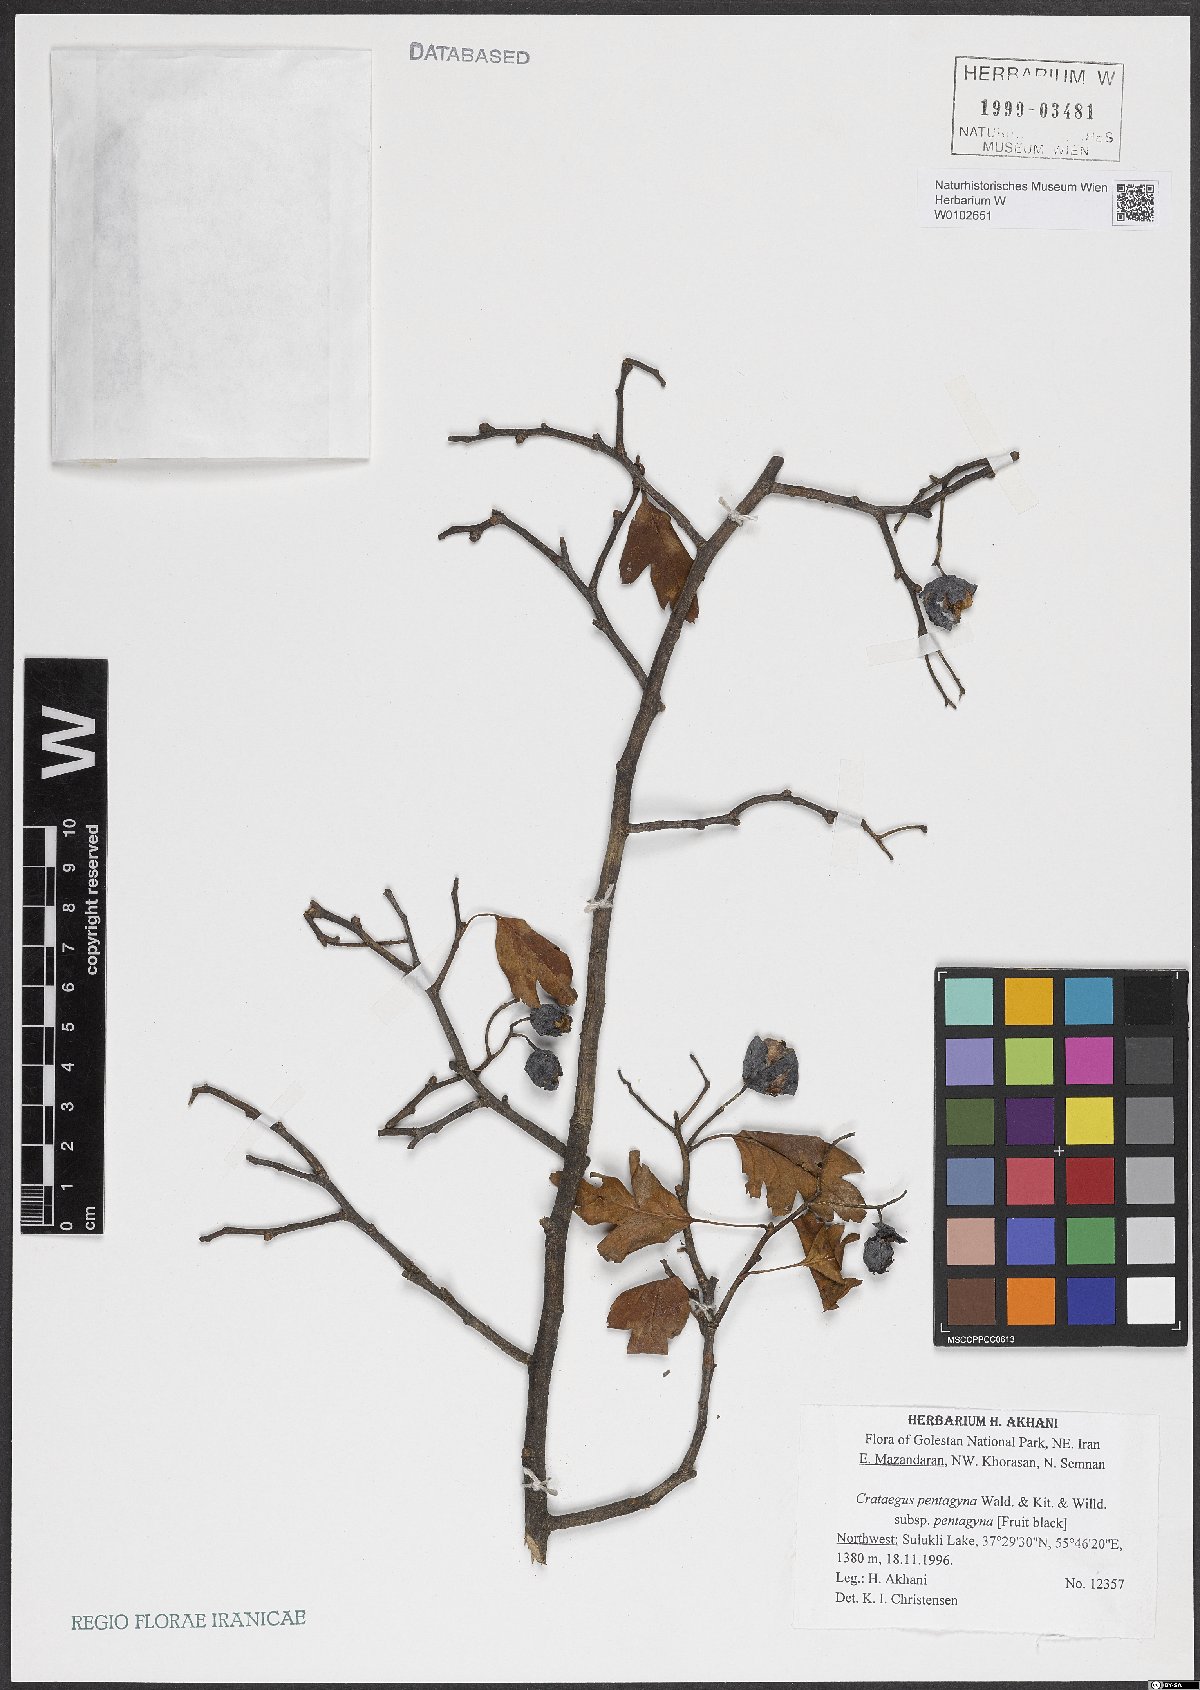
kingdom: Plantae
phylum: Tracheophyta
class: Magnoliopsida
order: Rosales
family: Rosaceae
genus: Crataegus
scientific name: Crataegus pentagyna
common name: Small-flowered black hawthorn
